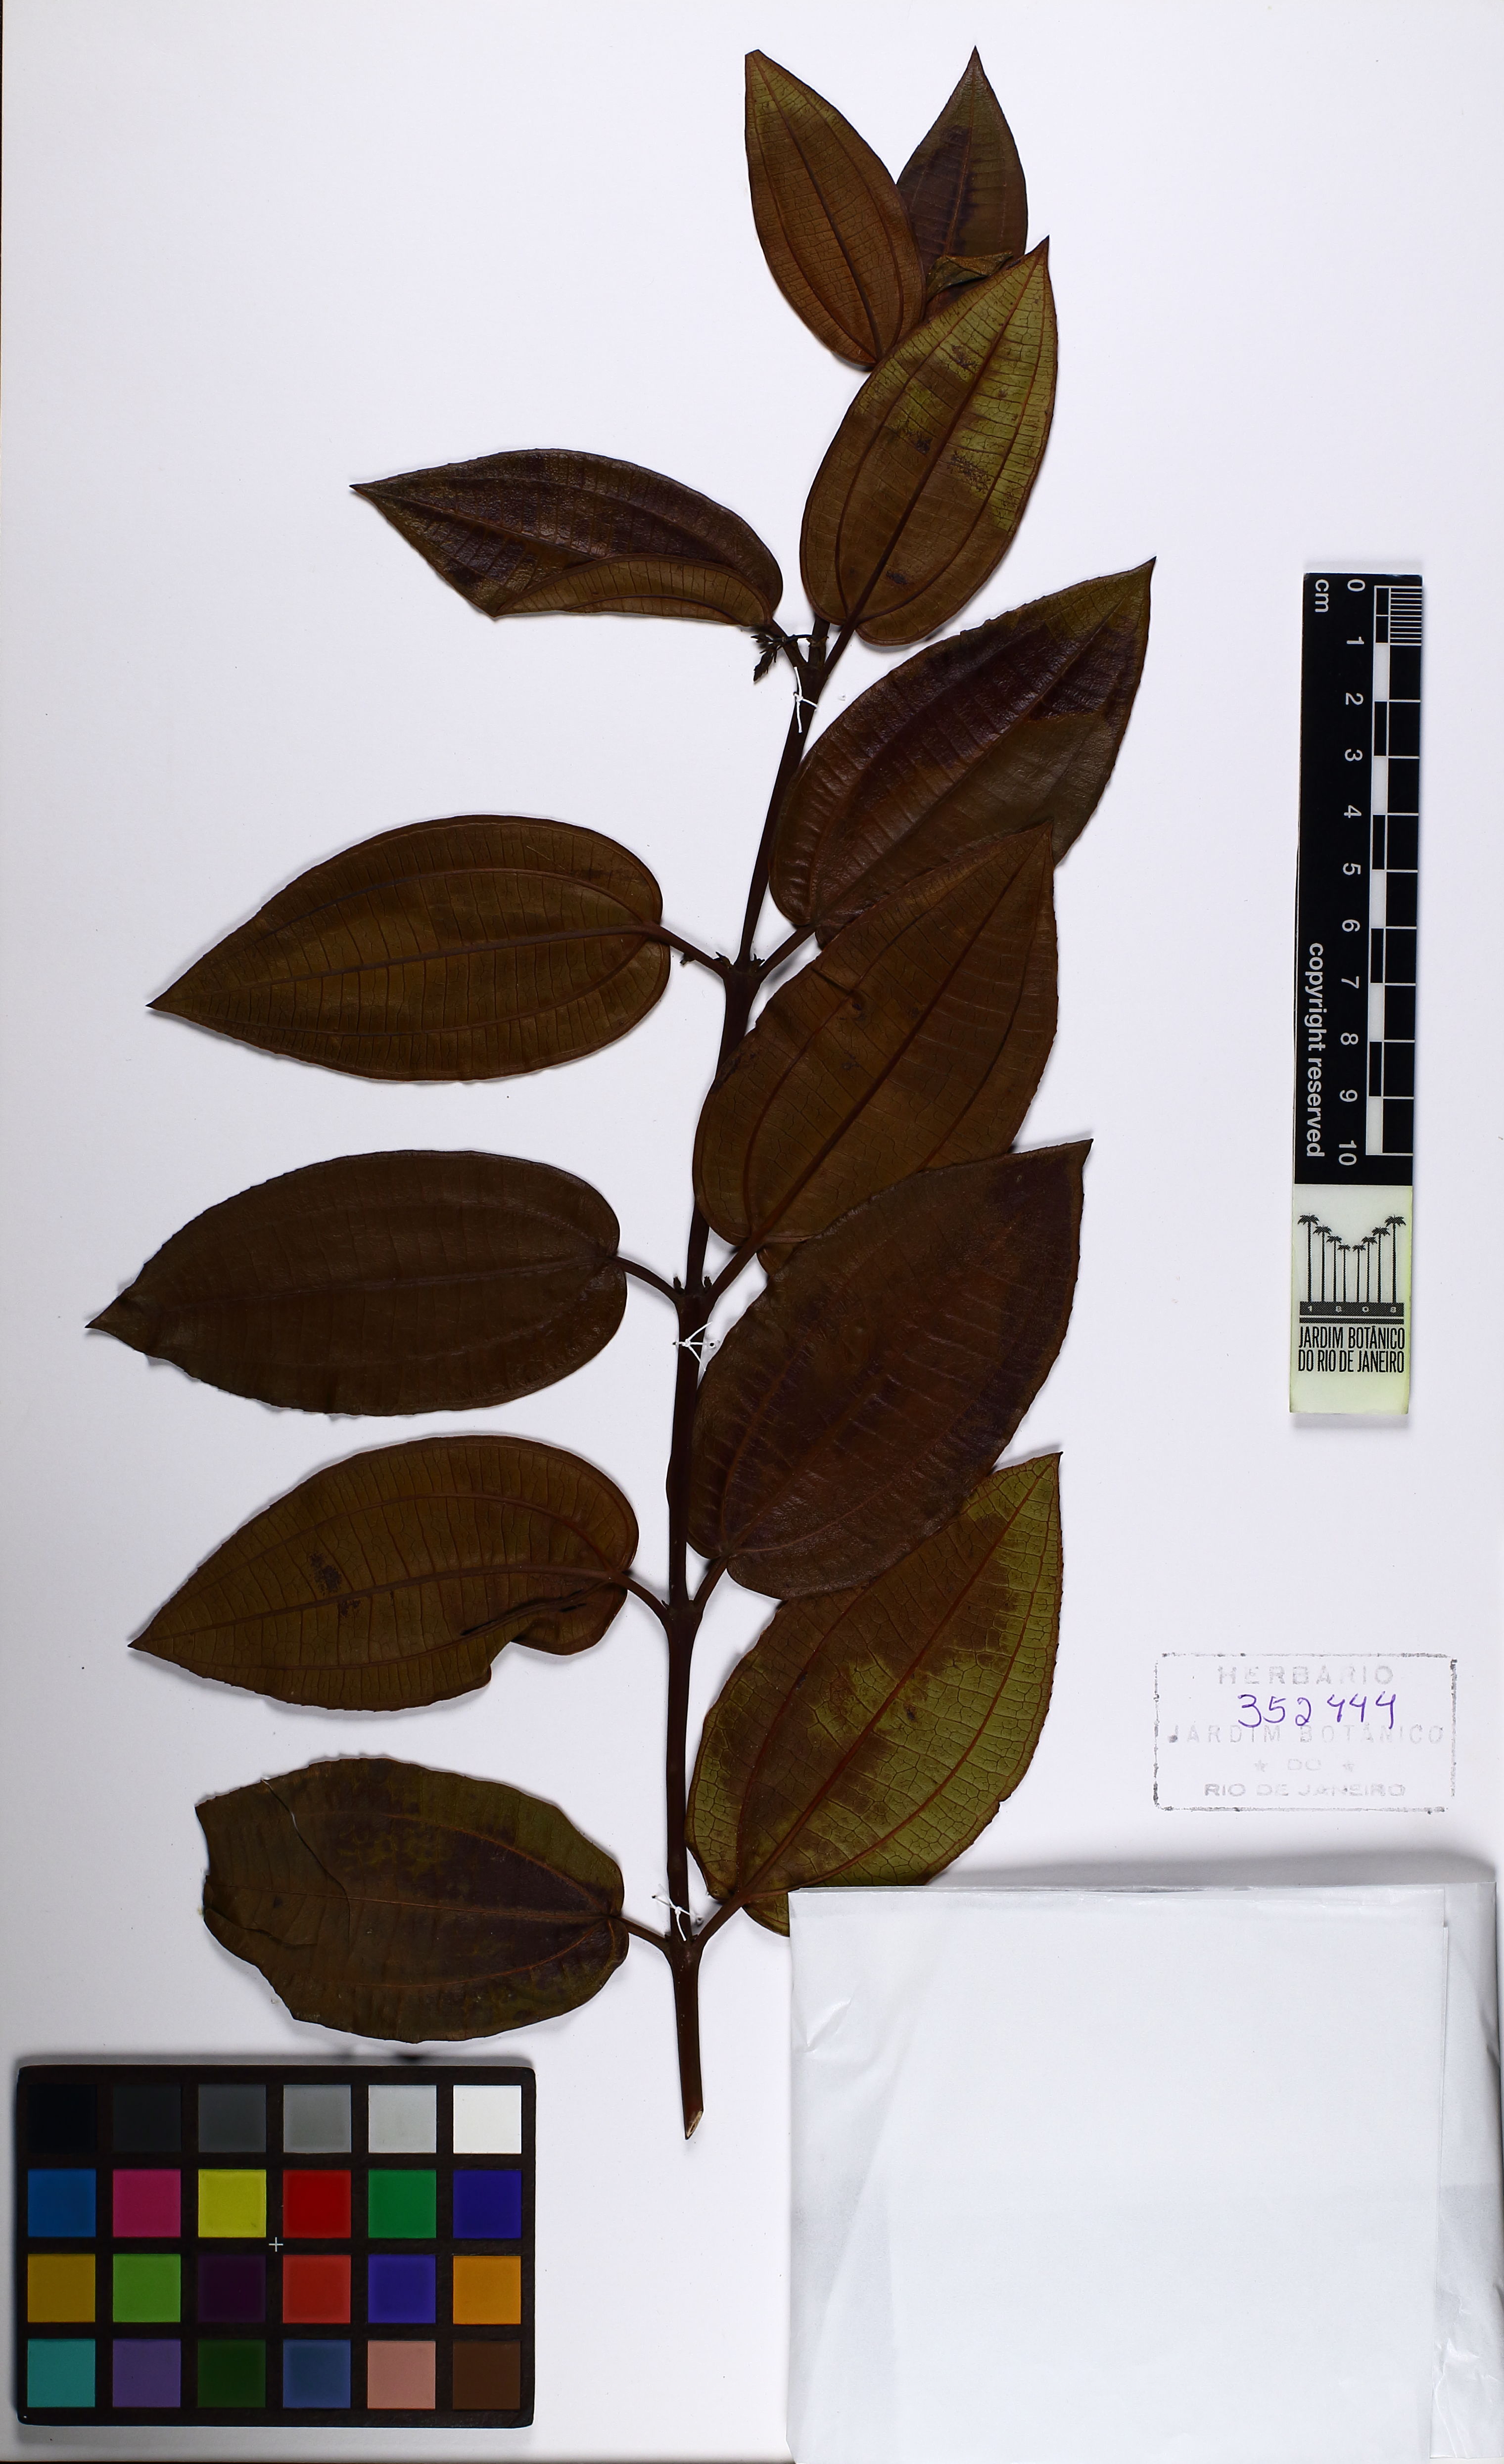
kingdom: Plantae
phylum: Tracheophyta
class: Magnoliopsida
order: Myrtales
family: Melastomataceae
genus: Miconia
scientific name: Miconia leabiscoriacea
